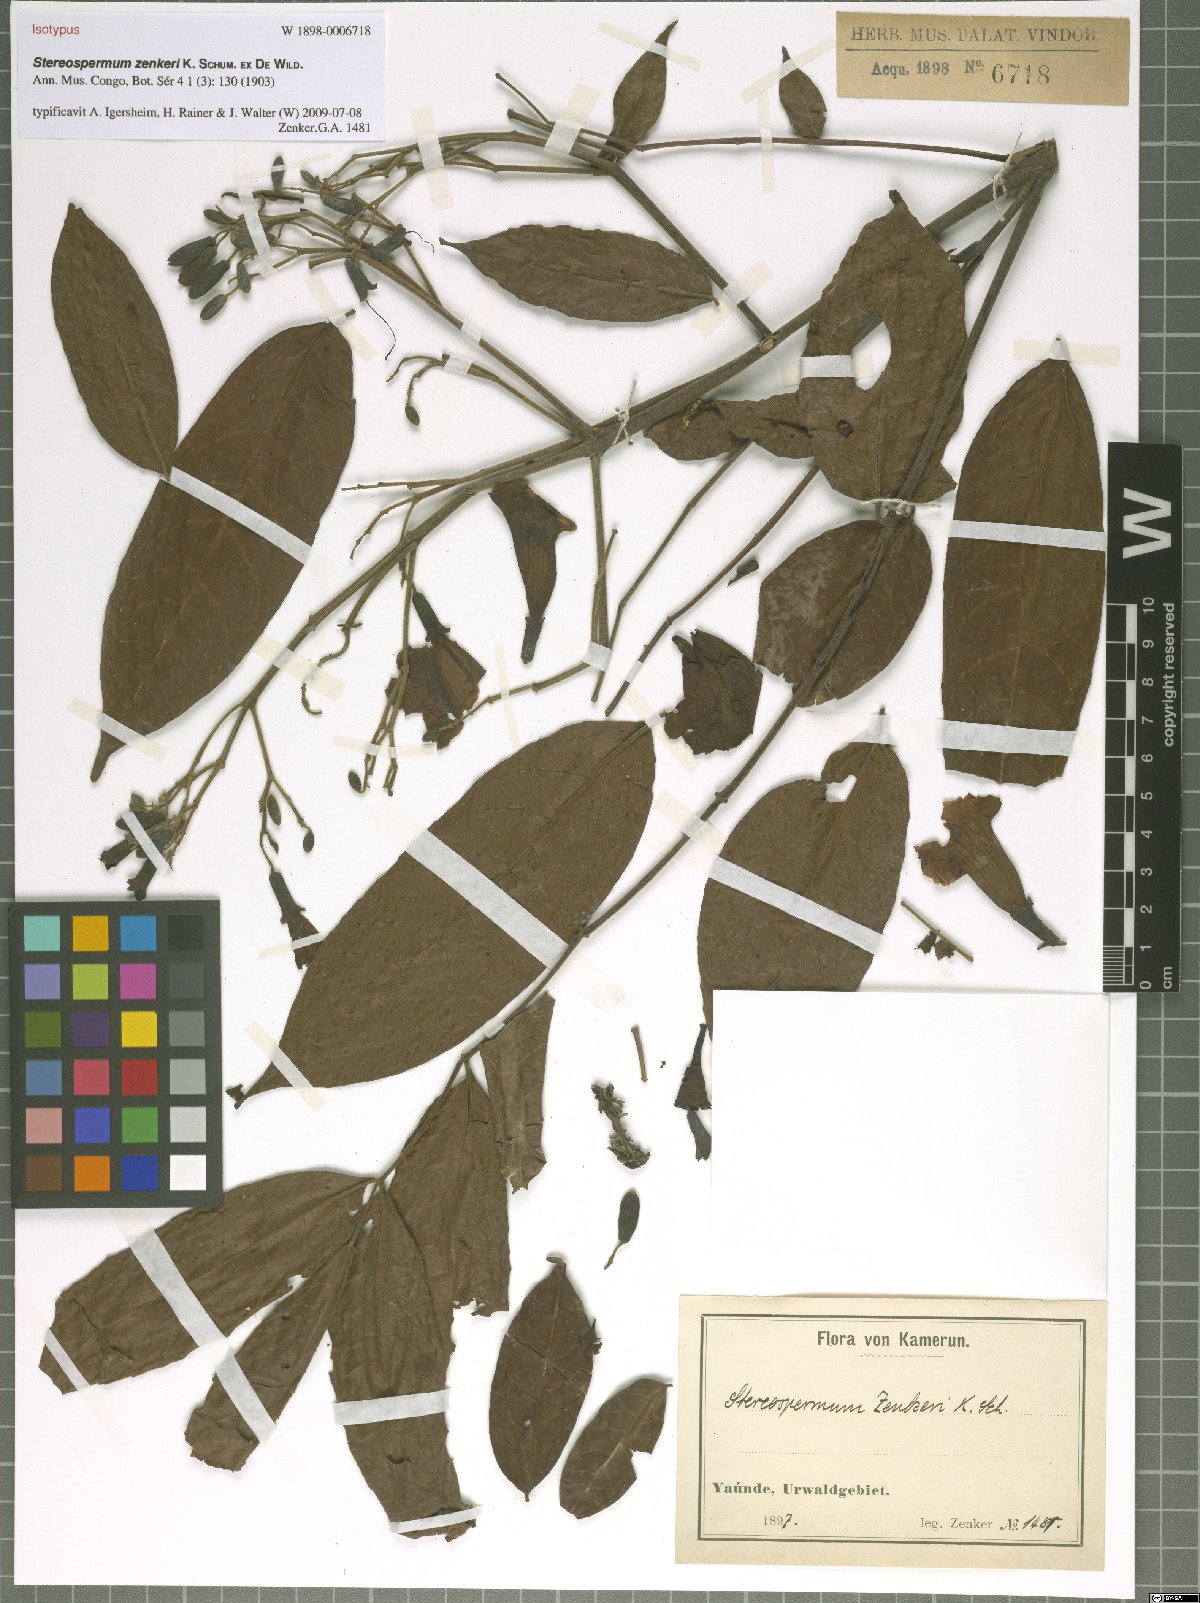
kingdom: Plantae
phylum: Tracheophyta
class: Magnoliopsida
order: Lamiales
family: Bignoniaceae
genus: Stereospermum
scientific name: Stereospermum zenkeri
